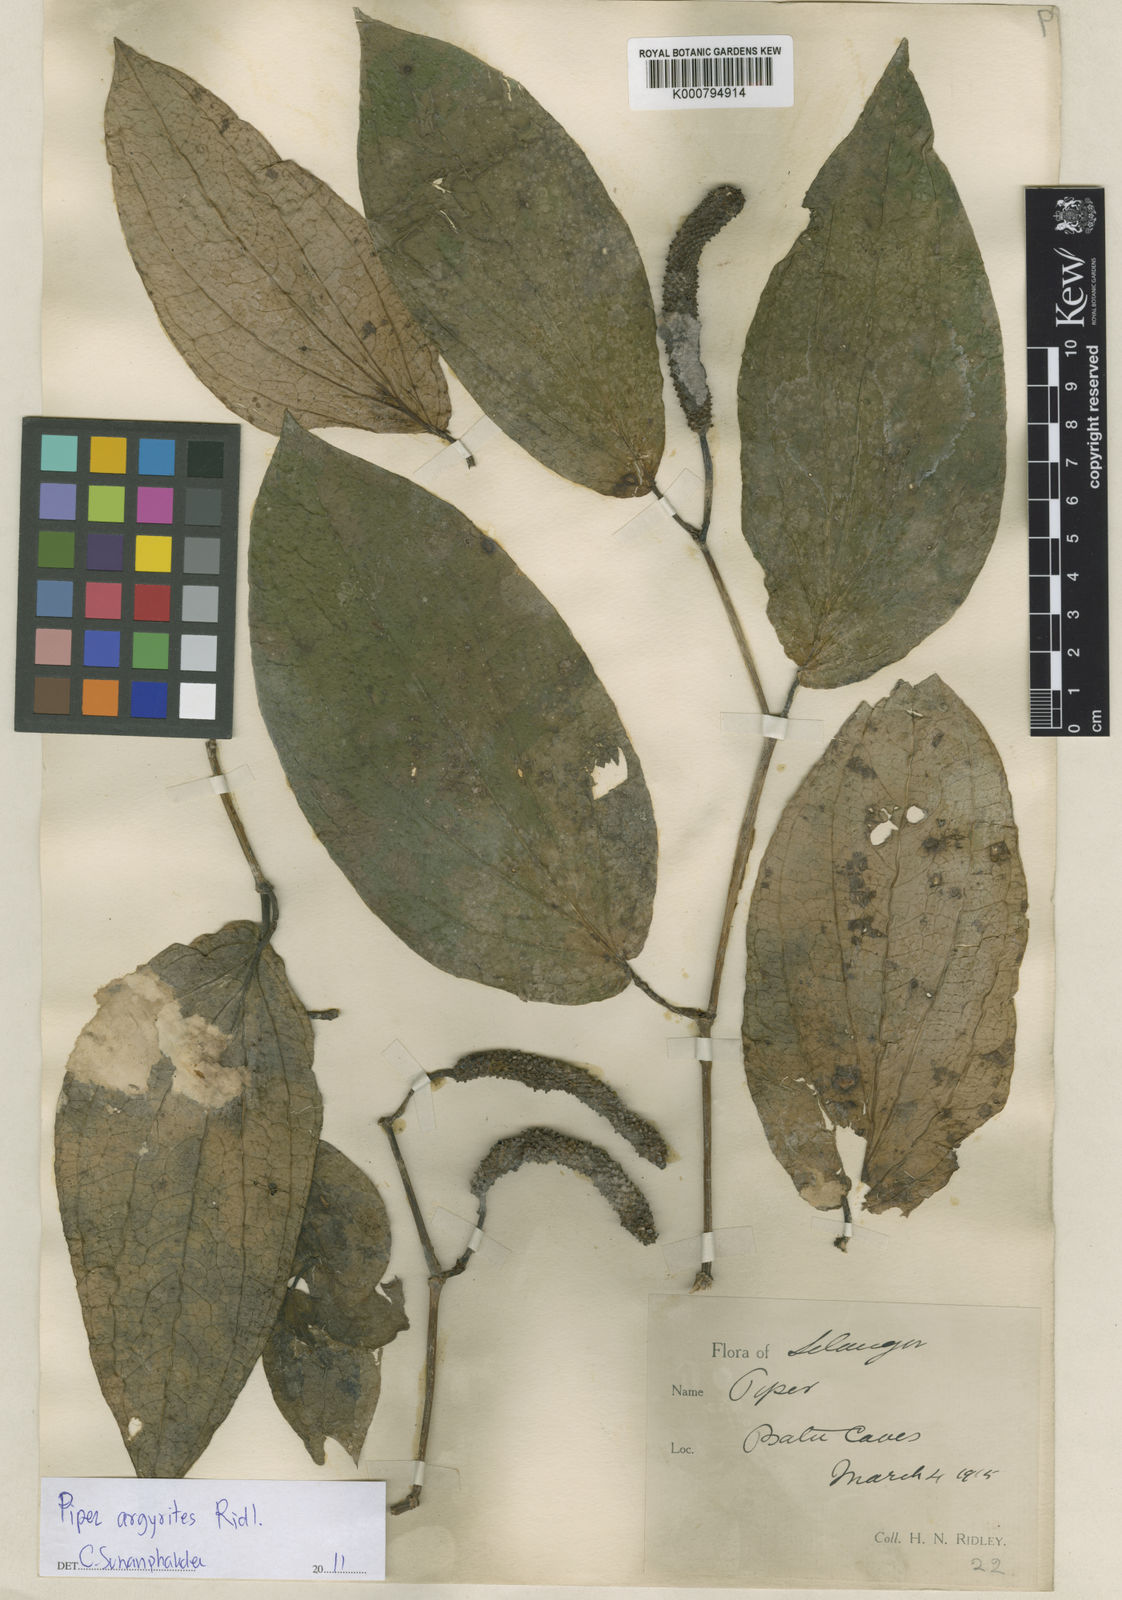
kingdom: Plantae
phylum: Tracheophyta
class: Magnoliopsida
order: Piperales
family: Piperaceae
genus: Piper
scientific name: Piper
